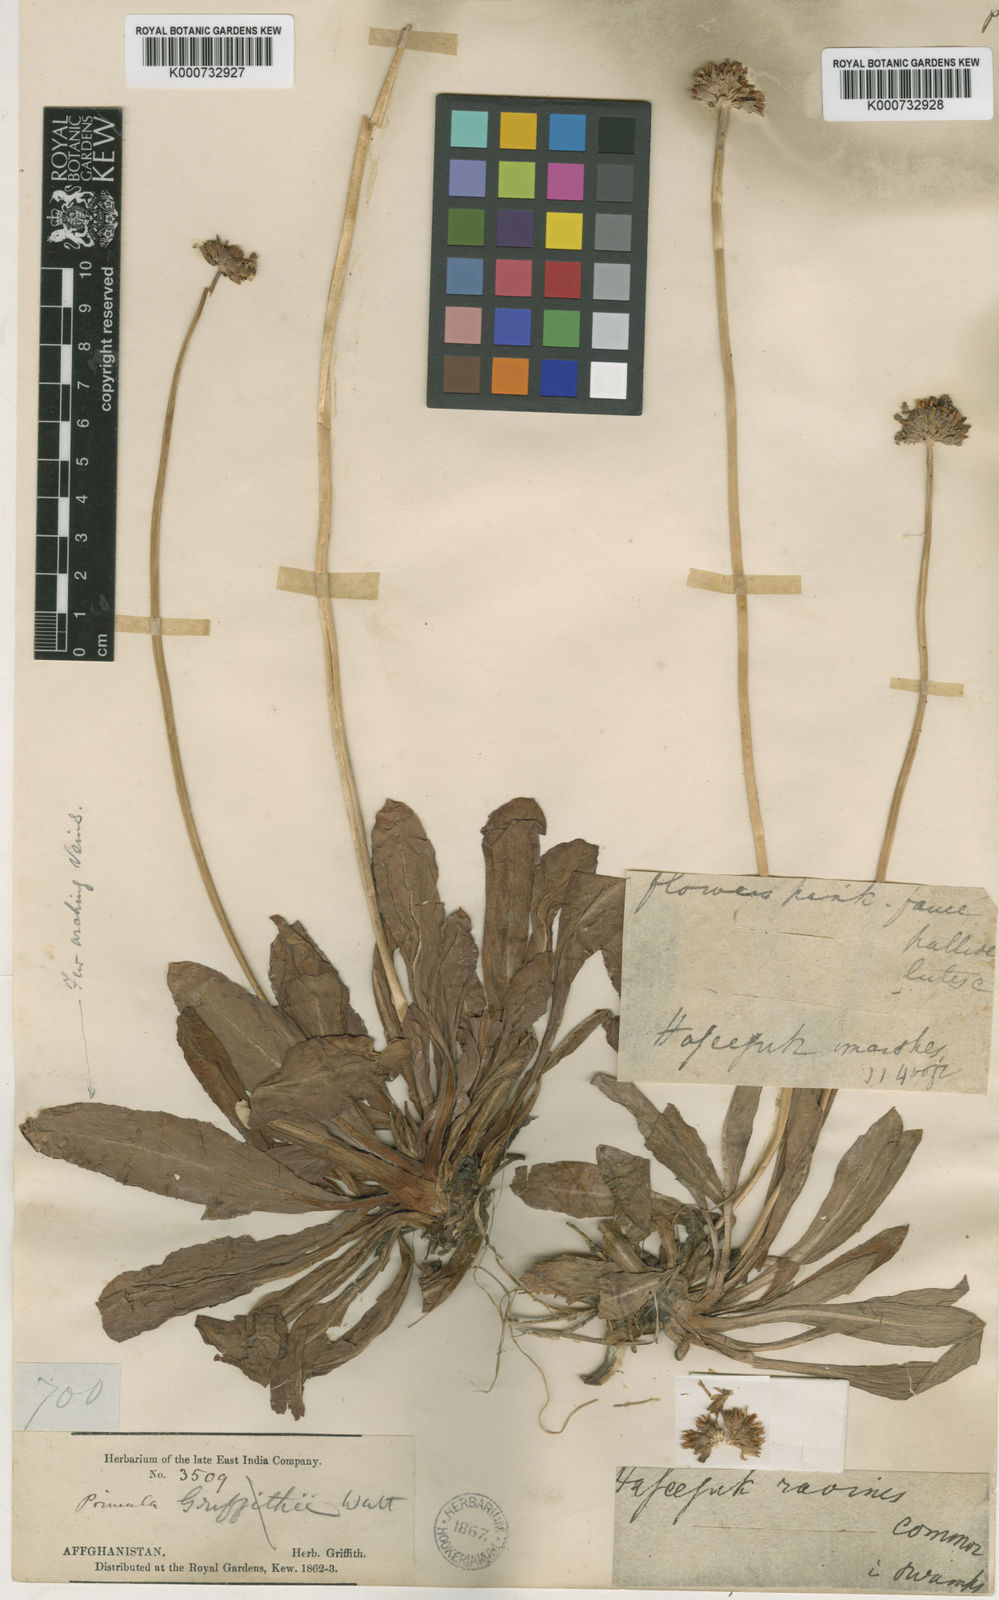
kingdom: Plantae
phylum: Tracheophyta
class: Magnoliopsida
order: Ericales
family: Primulaceae
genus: Primula
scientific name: Primula capitellata
